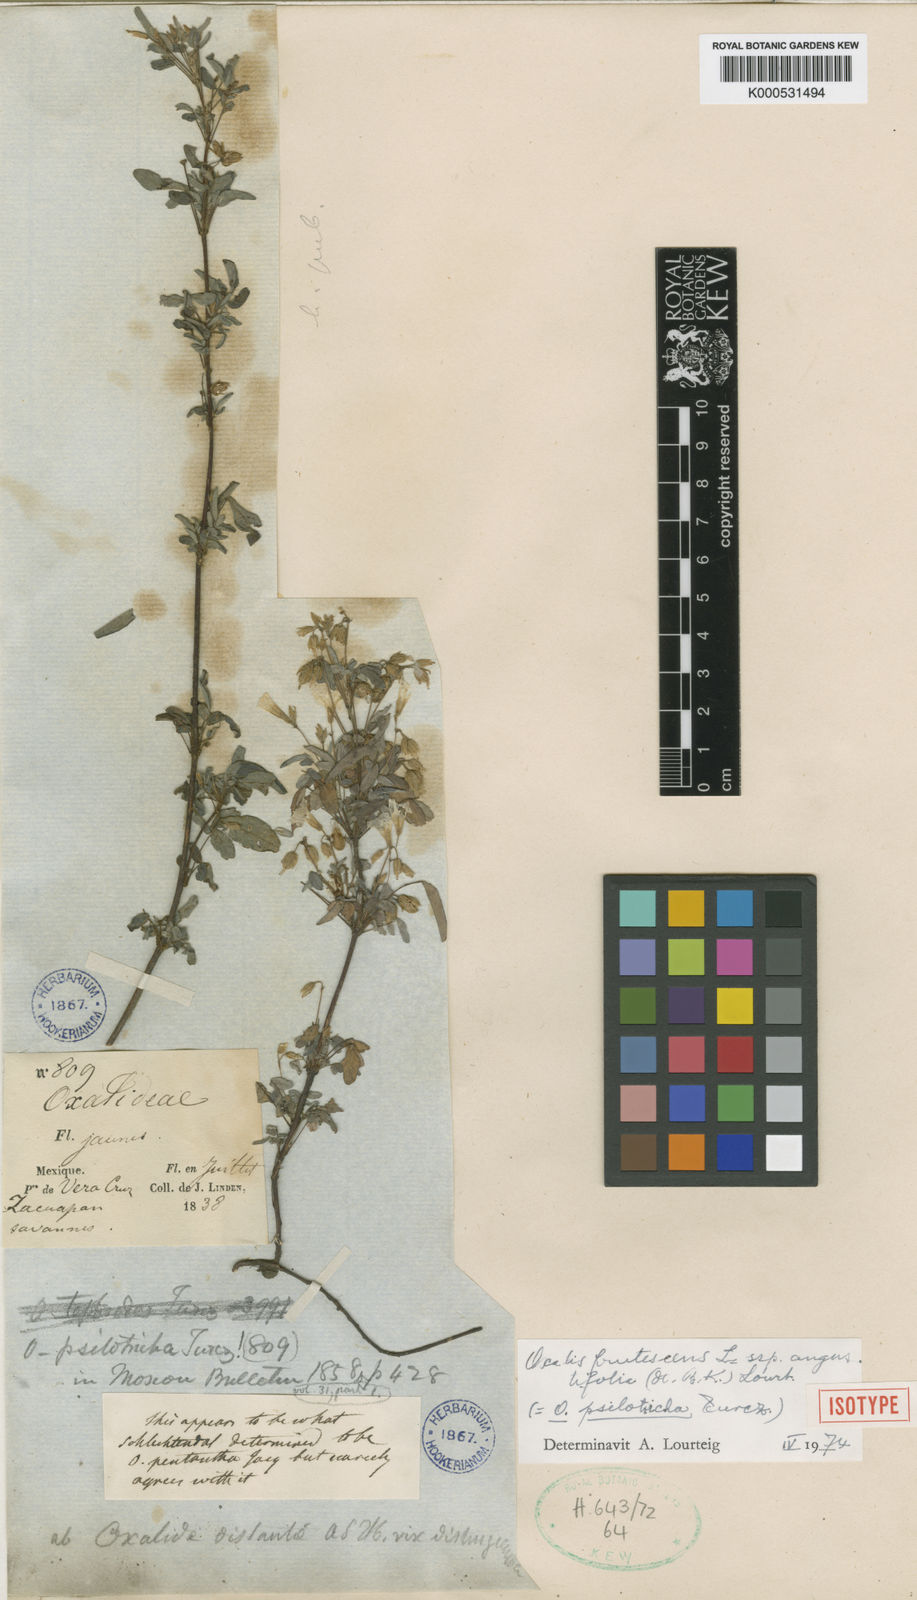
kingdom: Plantae
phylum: Tracheophyta
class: Magnoliopsida
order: Oxalidales
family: Oxalidaceae
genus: Oxalis
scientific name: Oxalis frutescens
